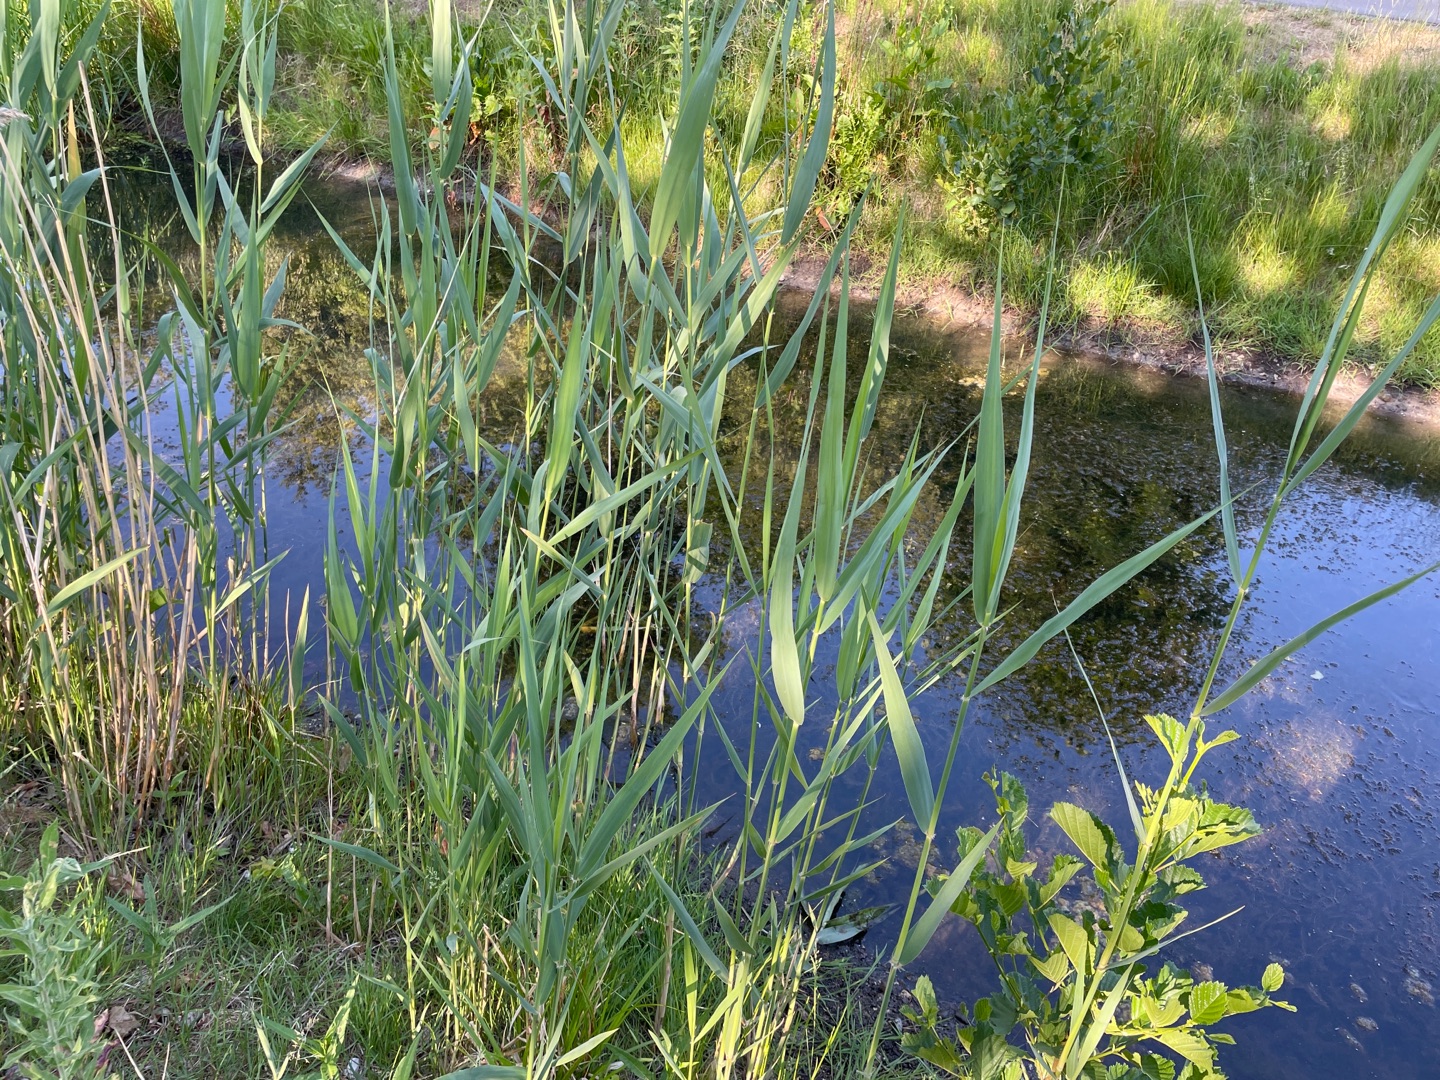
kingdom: Plantae
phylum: Tracheophyta
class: Liliopsida
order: Poales
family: Poaceae
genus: Phragmites
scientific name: Phragmites australis
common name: Tagrør
